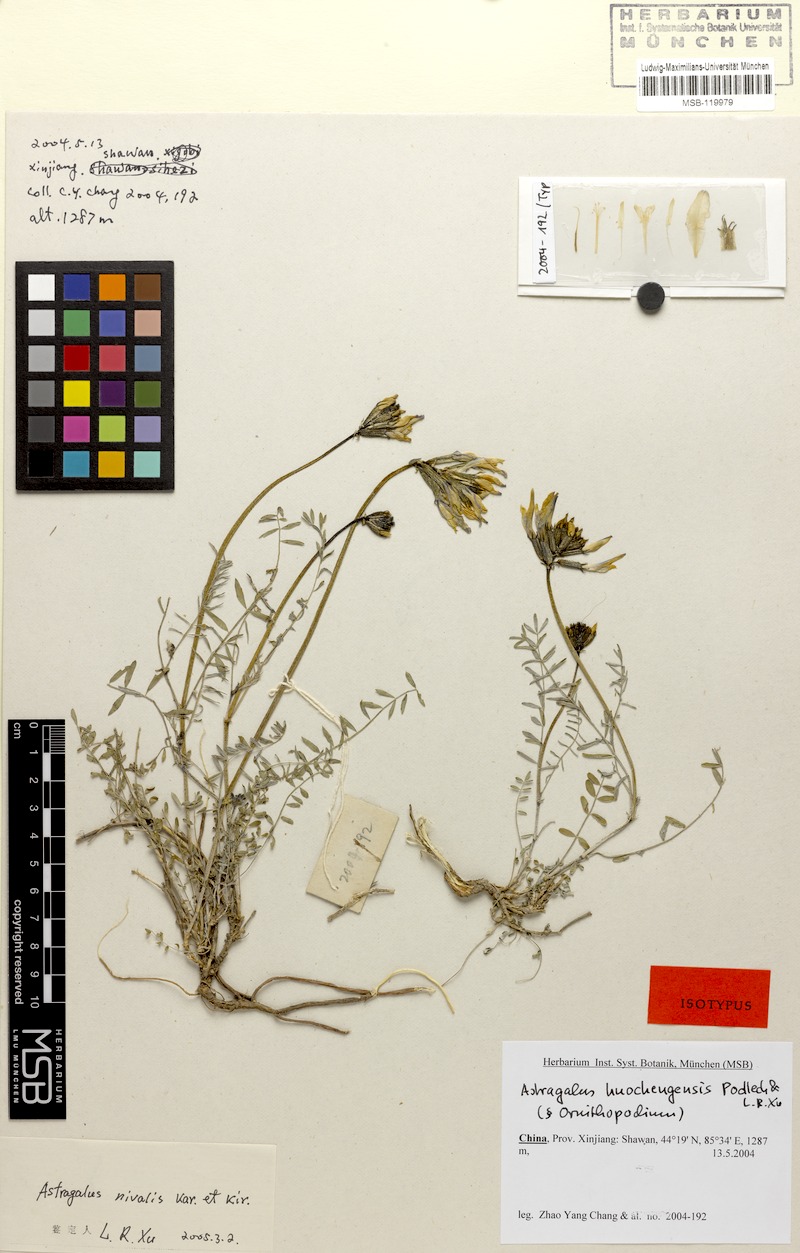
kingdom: Plantae
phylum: Tracheophyta
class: Magnoliopsida
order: Fabales
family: Fabaceae
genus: Astragalus
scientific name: Astragalus huochengensis
